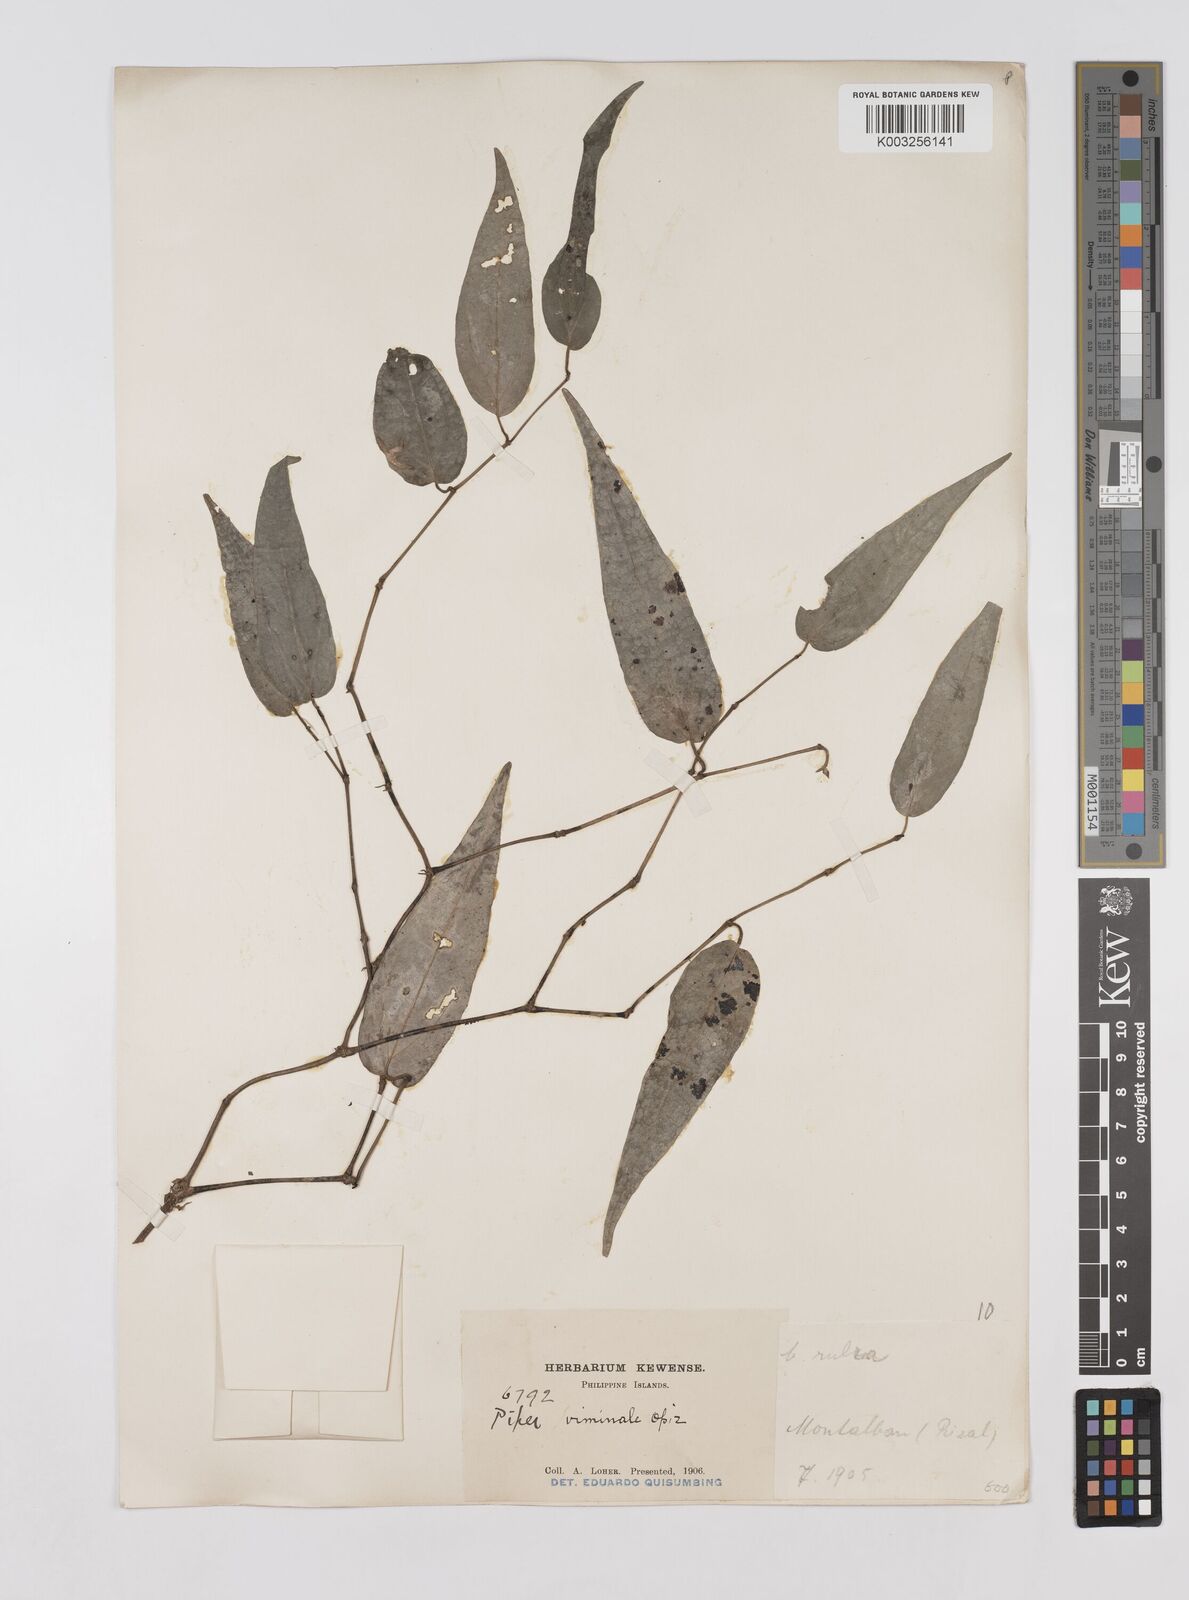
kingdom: Plantae
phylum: Tracheophyta
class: Magnoliopsida
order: Piperales
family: Piperaceae
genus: Piper
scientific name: Piper lanatum
